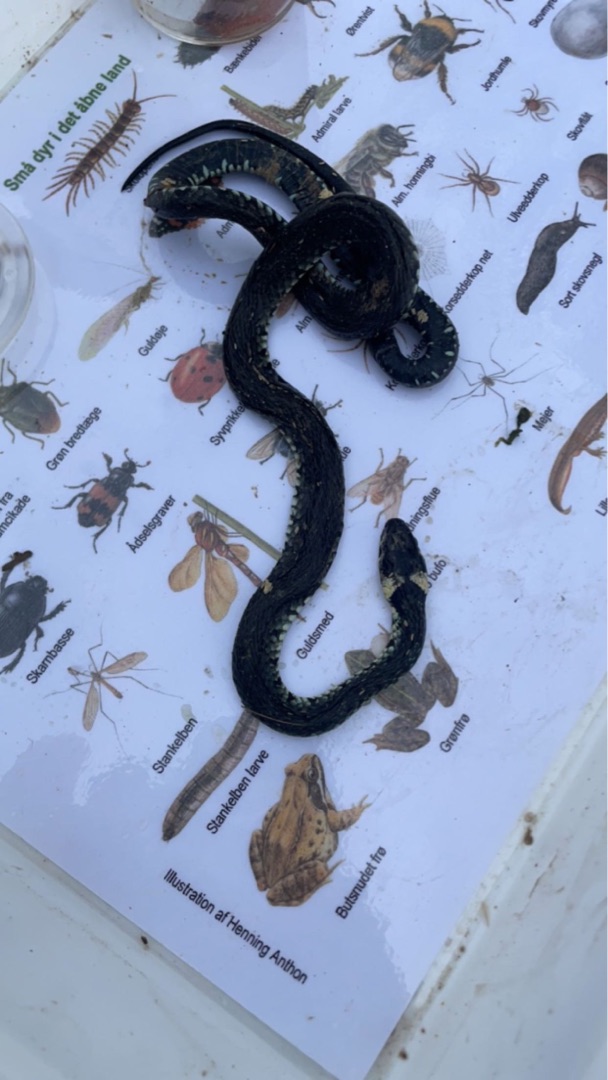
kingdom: Animalia
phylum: Chordata
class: Squamata
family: Colubridae
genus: Natrix
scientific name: Natrix natrix
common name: Snog
